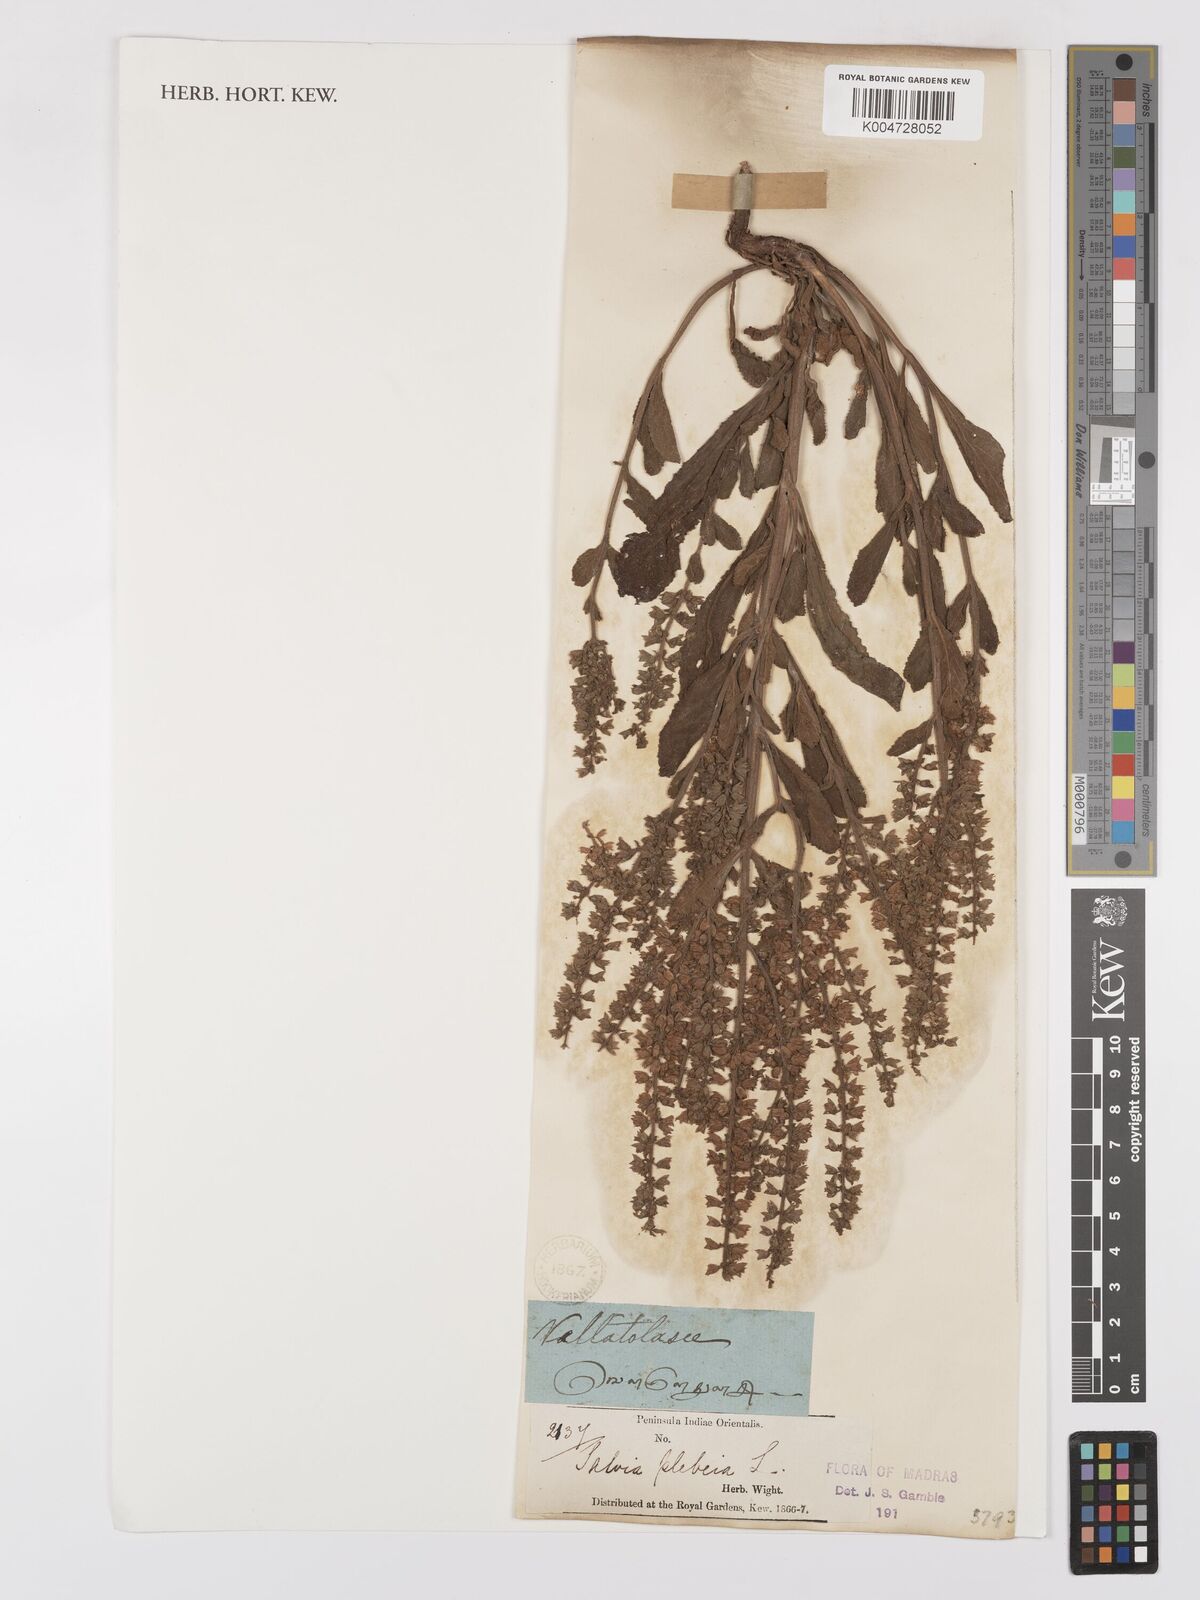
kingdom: Plantae
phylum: Tracheophyta
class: Magnoliopsida
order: Lamiales
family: Lamiaceae
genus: Salvia
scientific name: Salvia plebeia
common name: Australian sage
